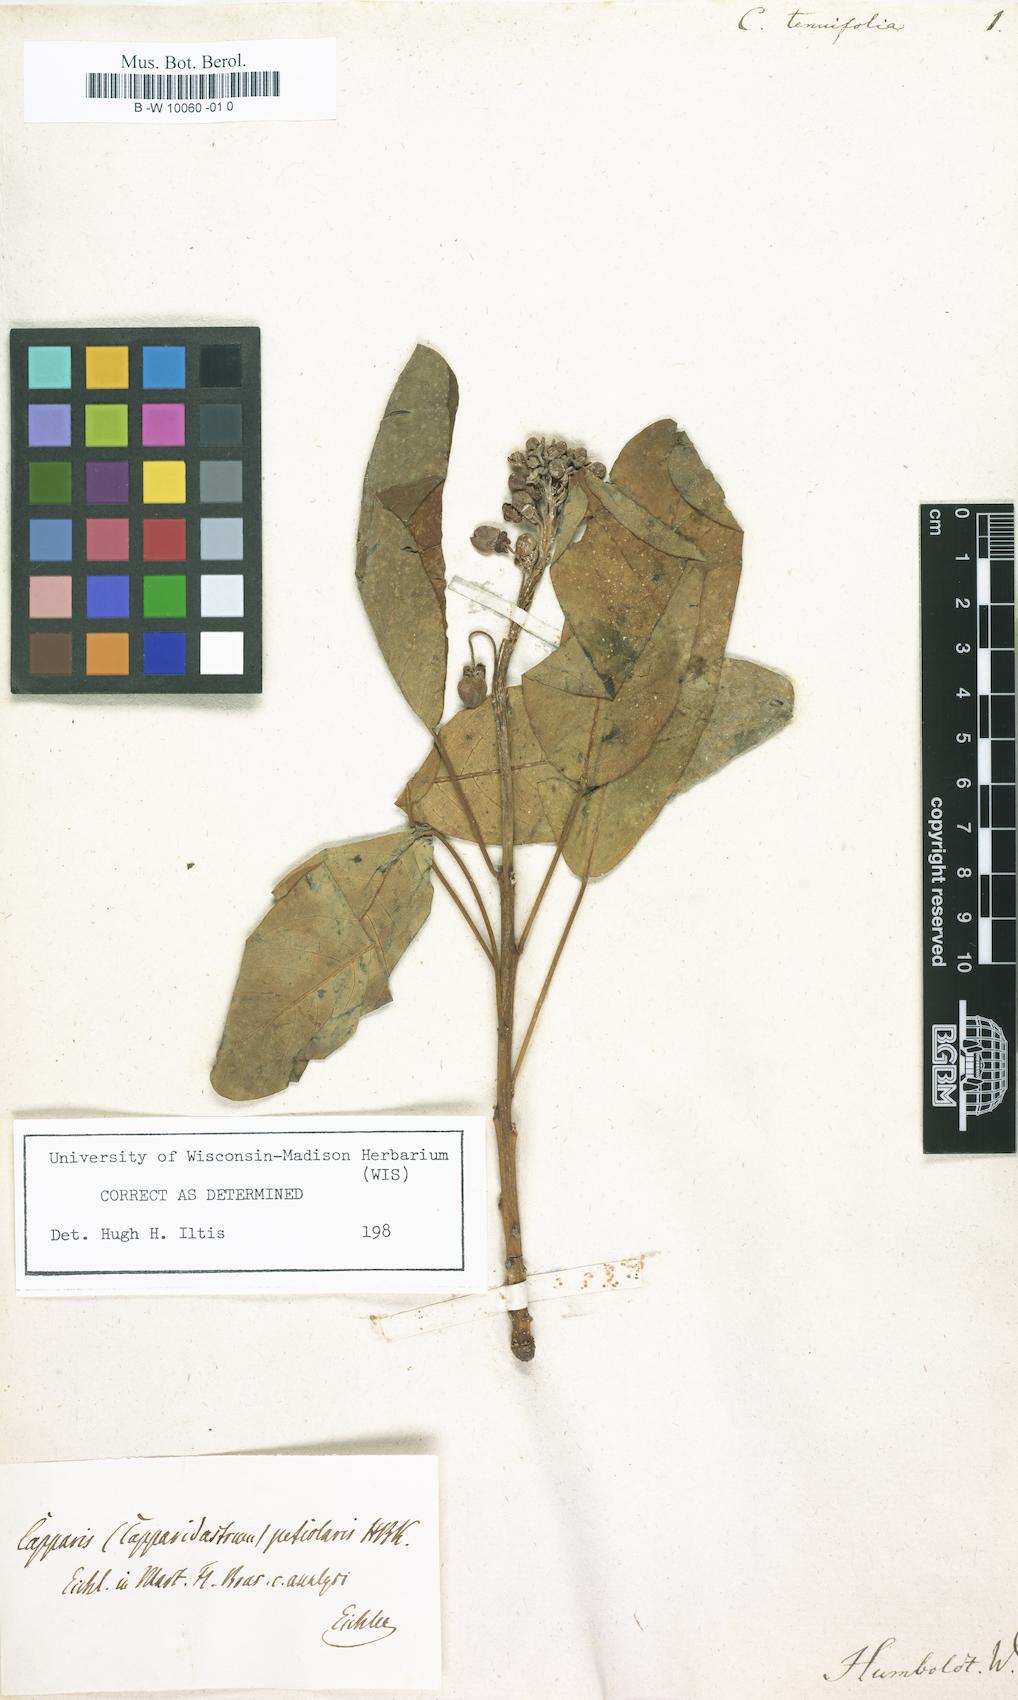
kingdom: Plantae
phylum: Tracheophyta
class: Magnoliopsida
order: Brassicales
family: Capparaceae
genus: Capparis
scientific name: Capparis tenuifolia
